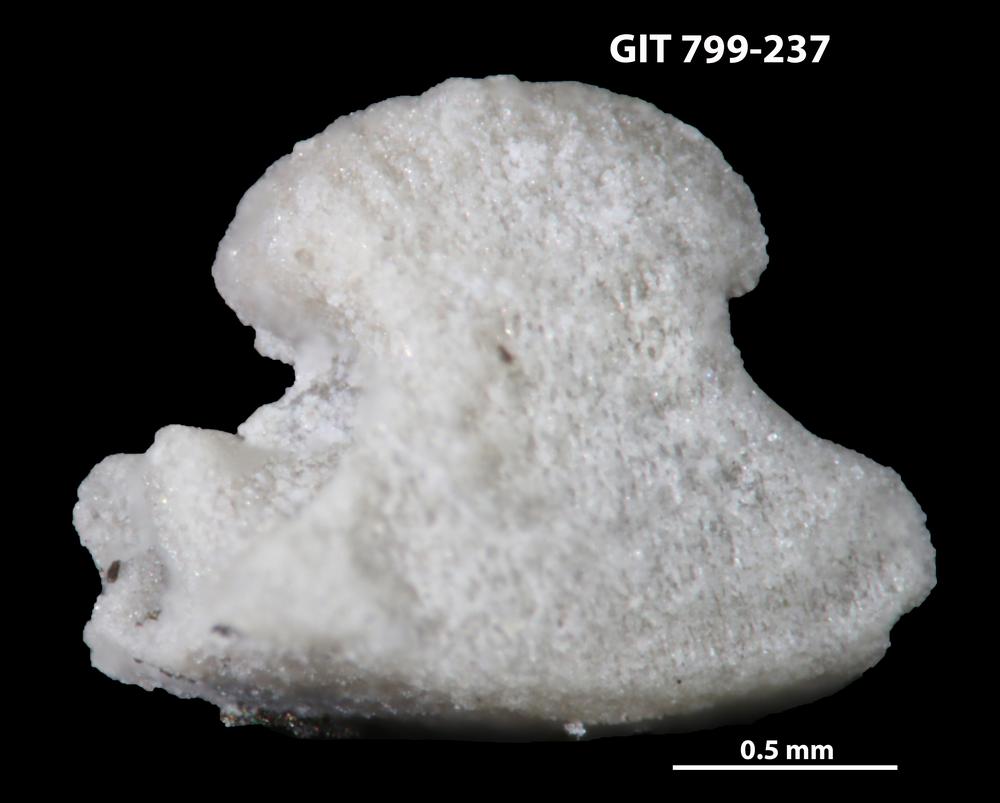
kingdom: Animalia
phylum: Echinodermata
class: Crinoidea
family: Cyclocystoididae
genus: Polytryphocycloides
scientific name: Polytryphocycloides Cyclocystoides lindstroemi
